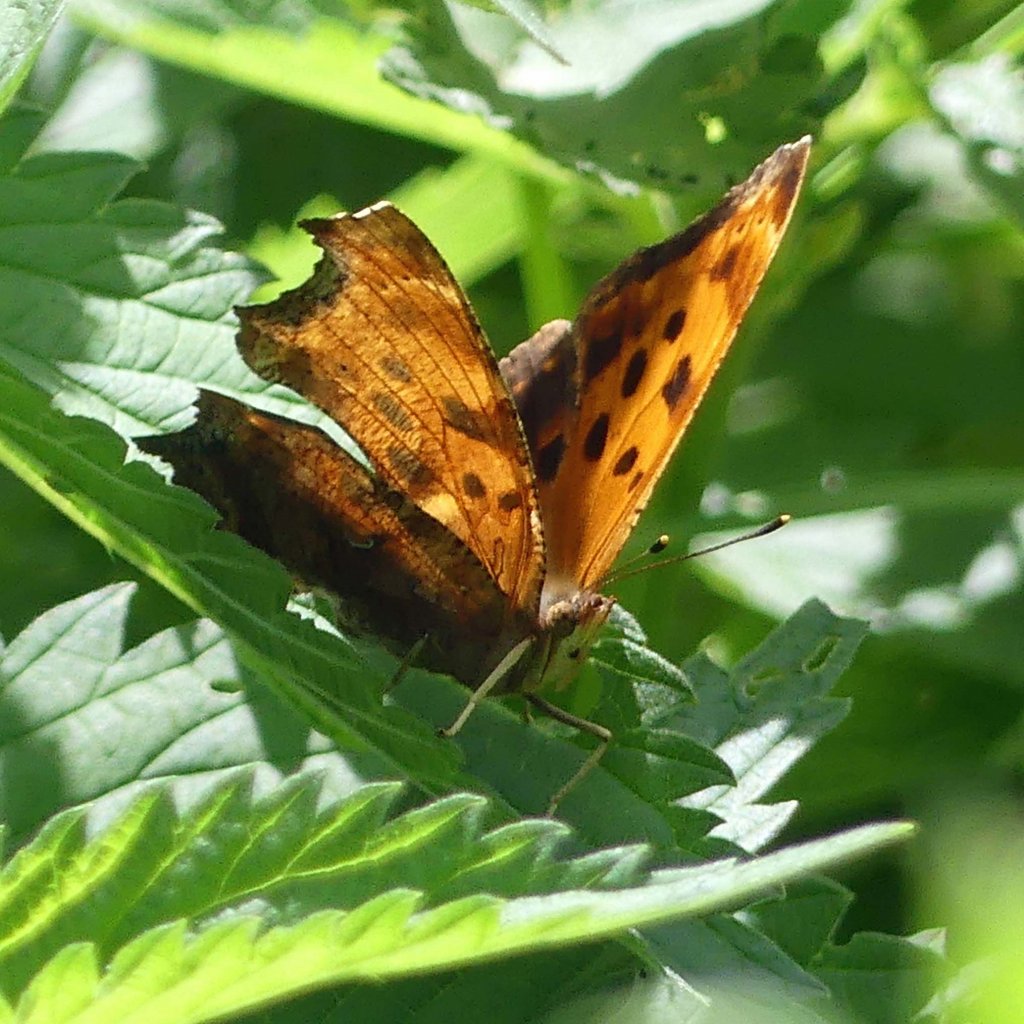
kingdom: Animalia
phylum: Arthropoda
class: Insecta
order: Lepidoptera
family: Nymphalidae
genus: Polygonia
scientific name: Polygonia comma
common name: Eastern Comma
